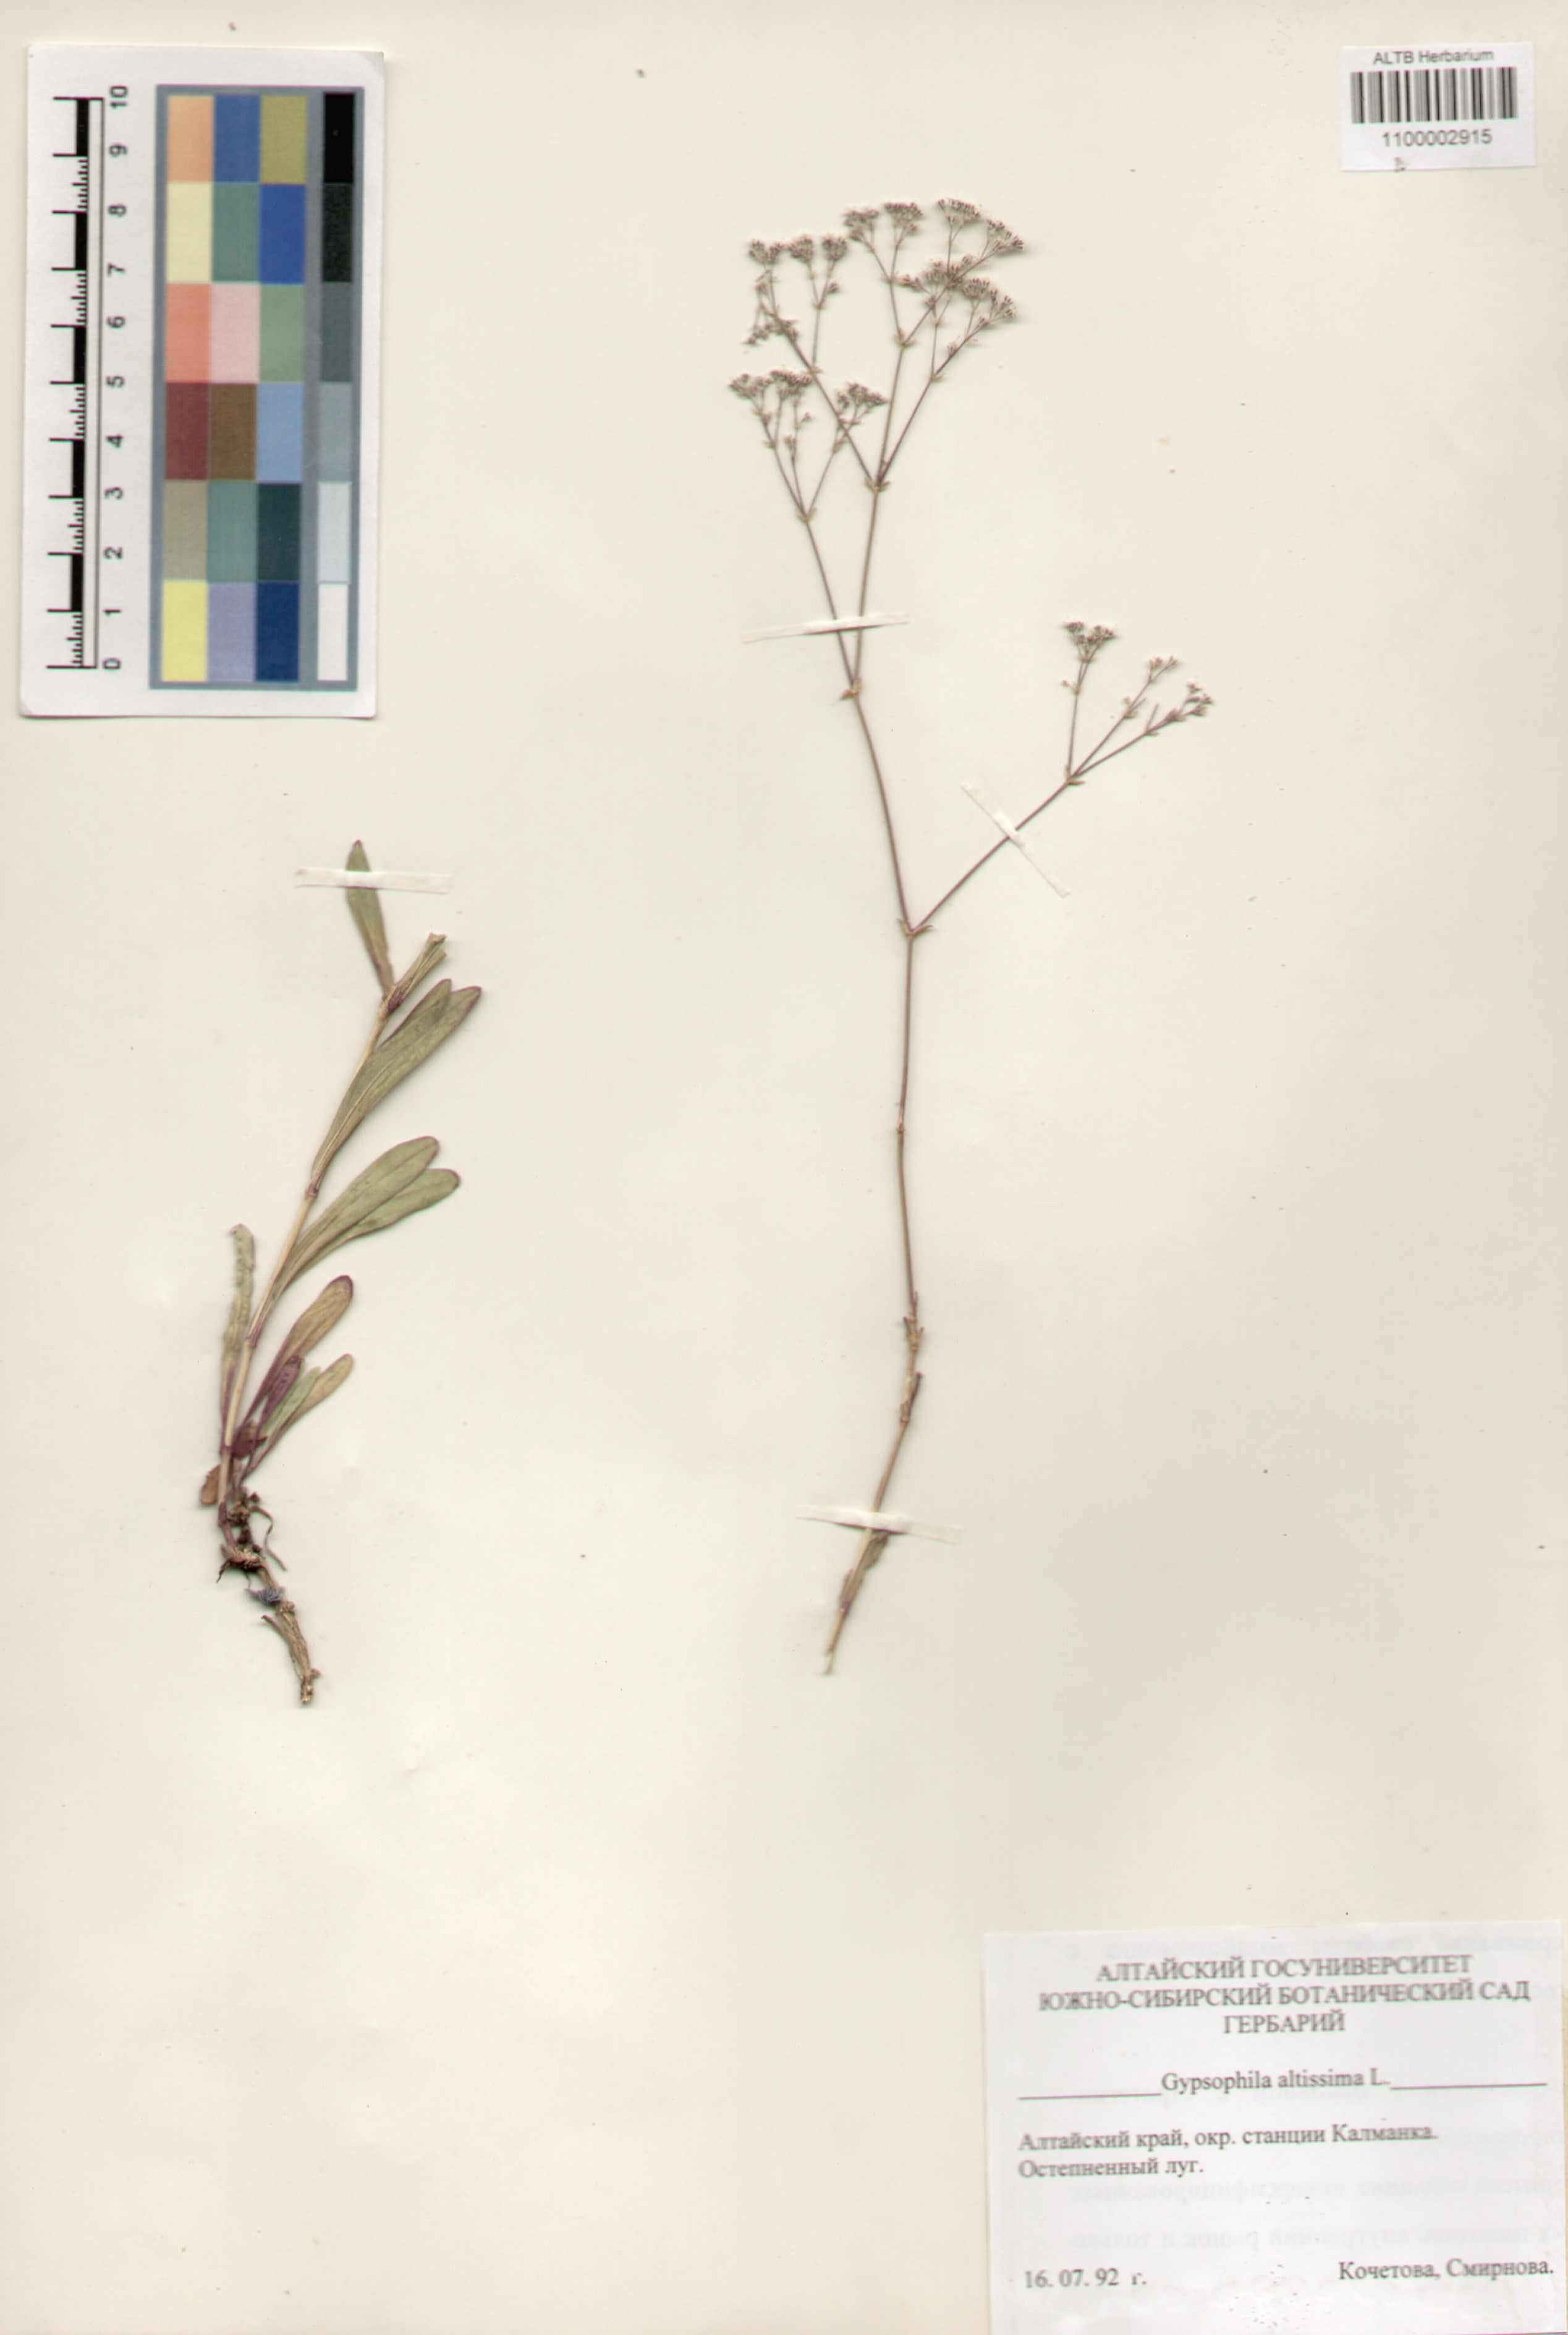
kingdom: Plantae
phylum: Tracheophyta
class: Magnoliopsida
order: Caryophyllales
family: Caryophyllaceae
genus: Gypsophila
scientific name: Gypsophila altissima
